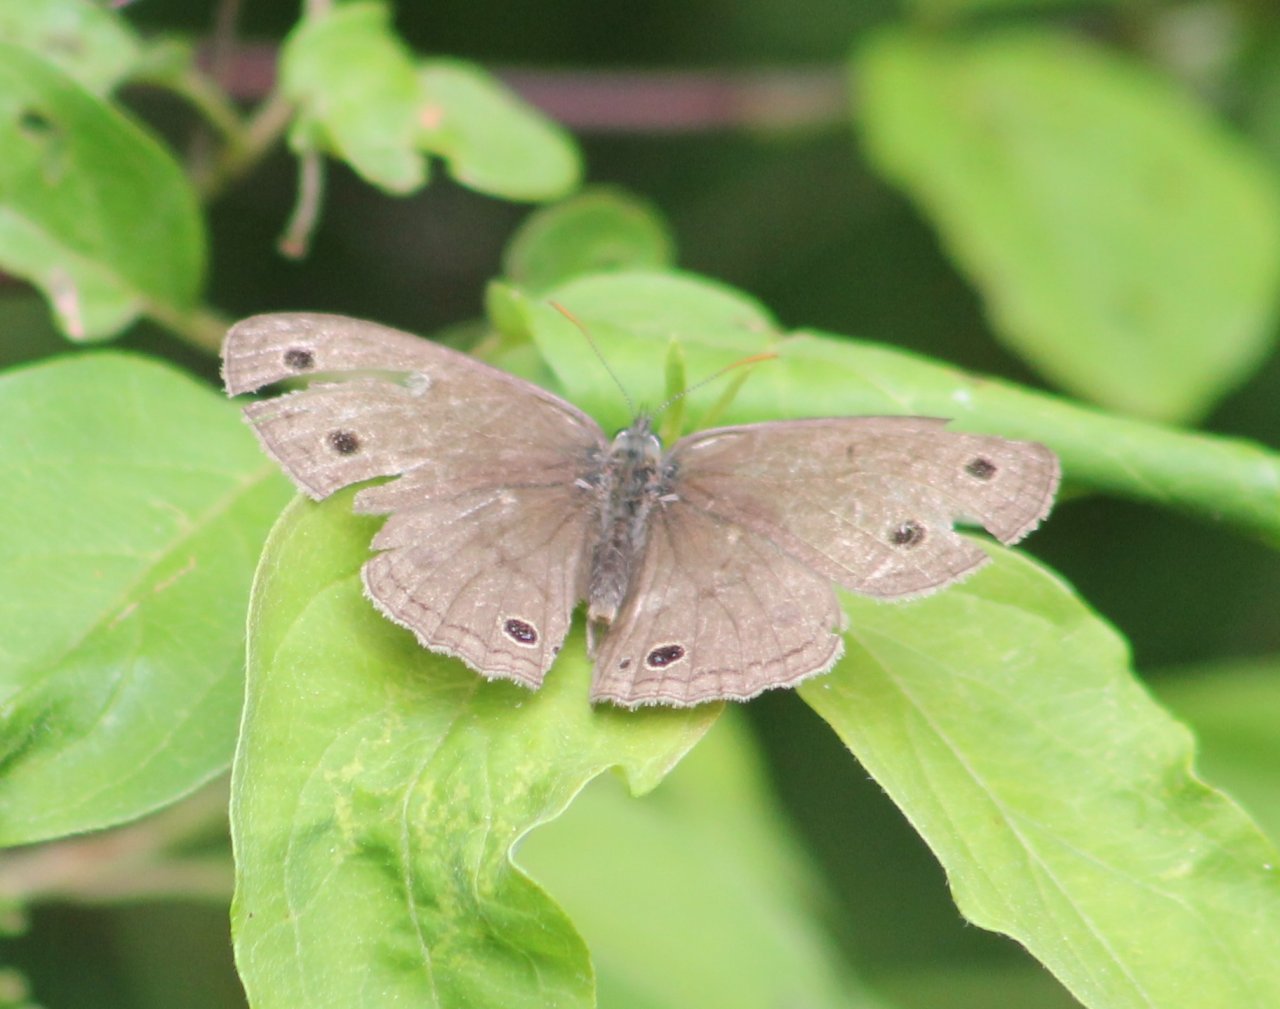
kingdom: Animalia
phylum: Arthropoda
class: Insecta
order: Lepidoptera
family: Nymphalidae
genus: Euptychia
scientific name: Euptychia cymela
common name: Little Wood Satyr
